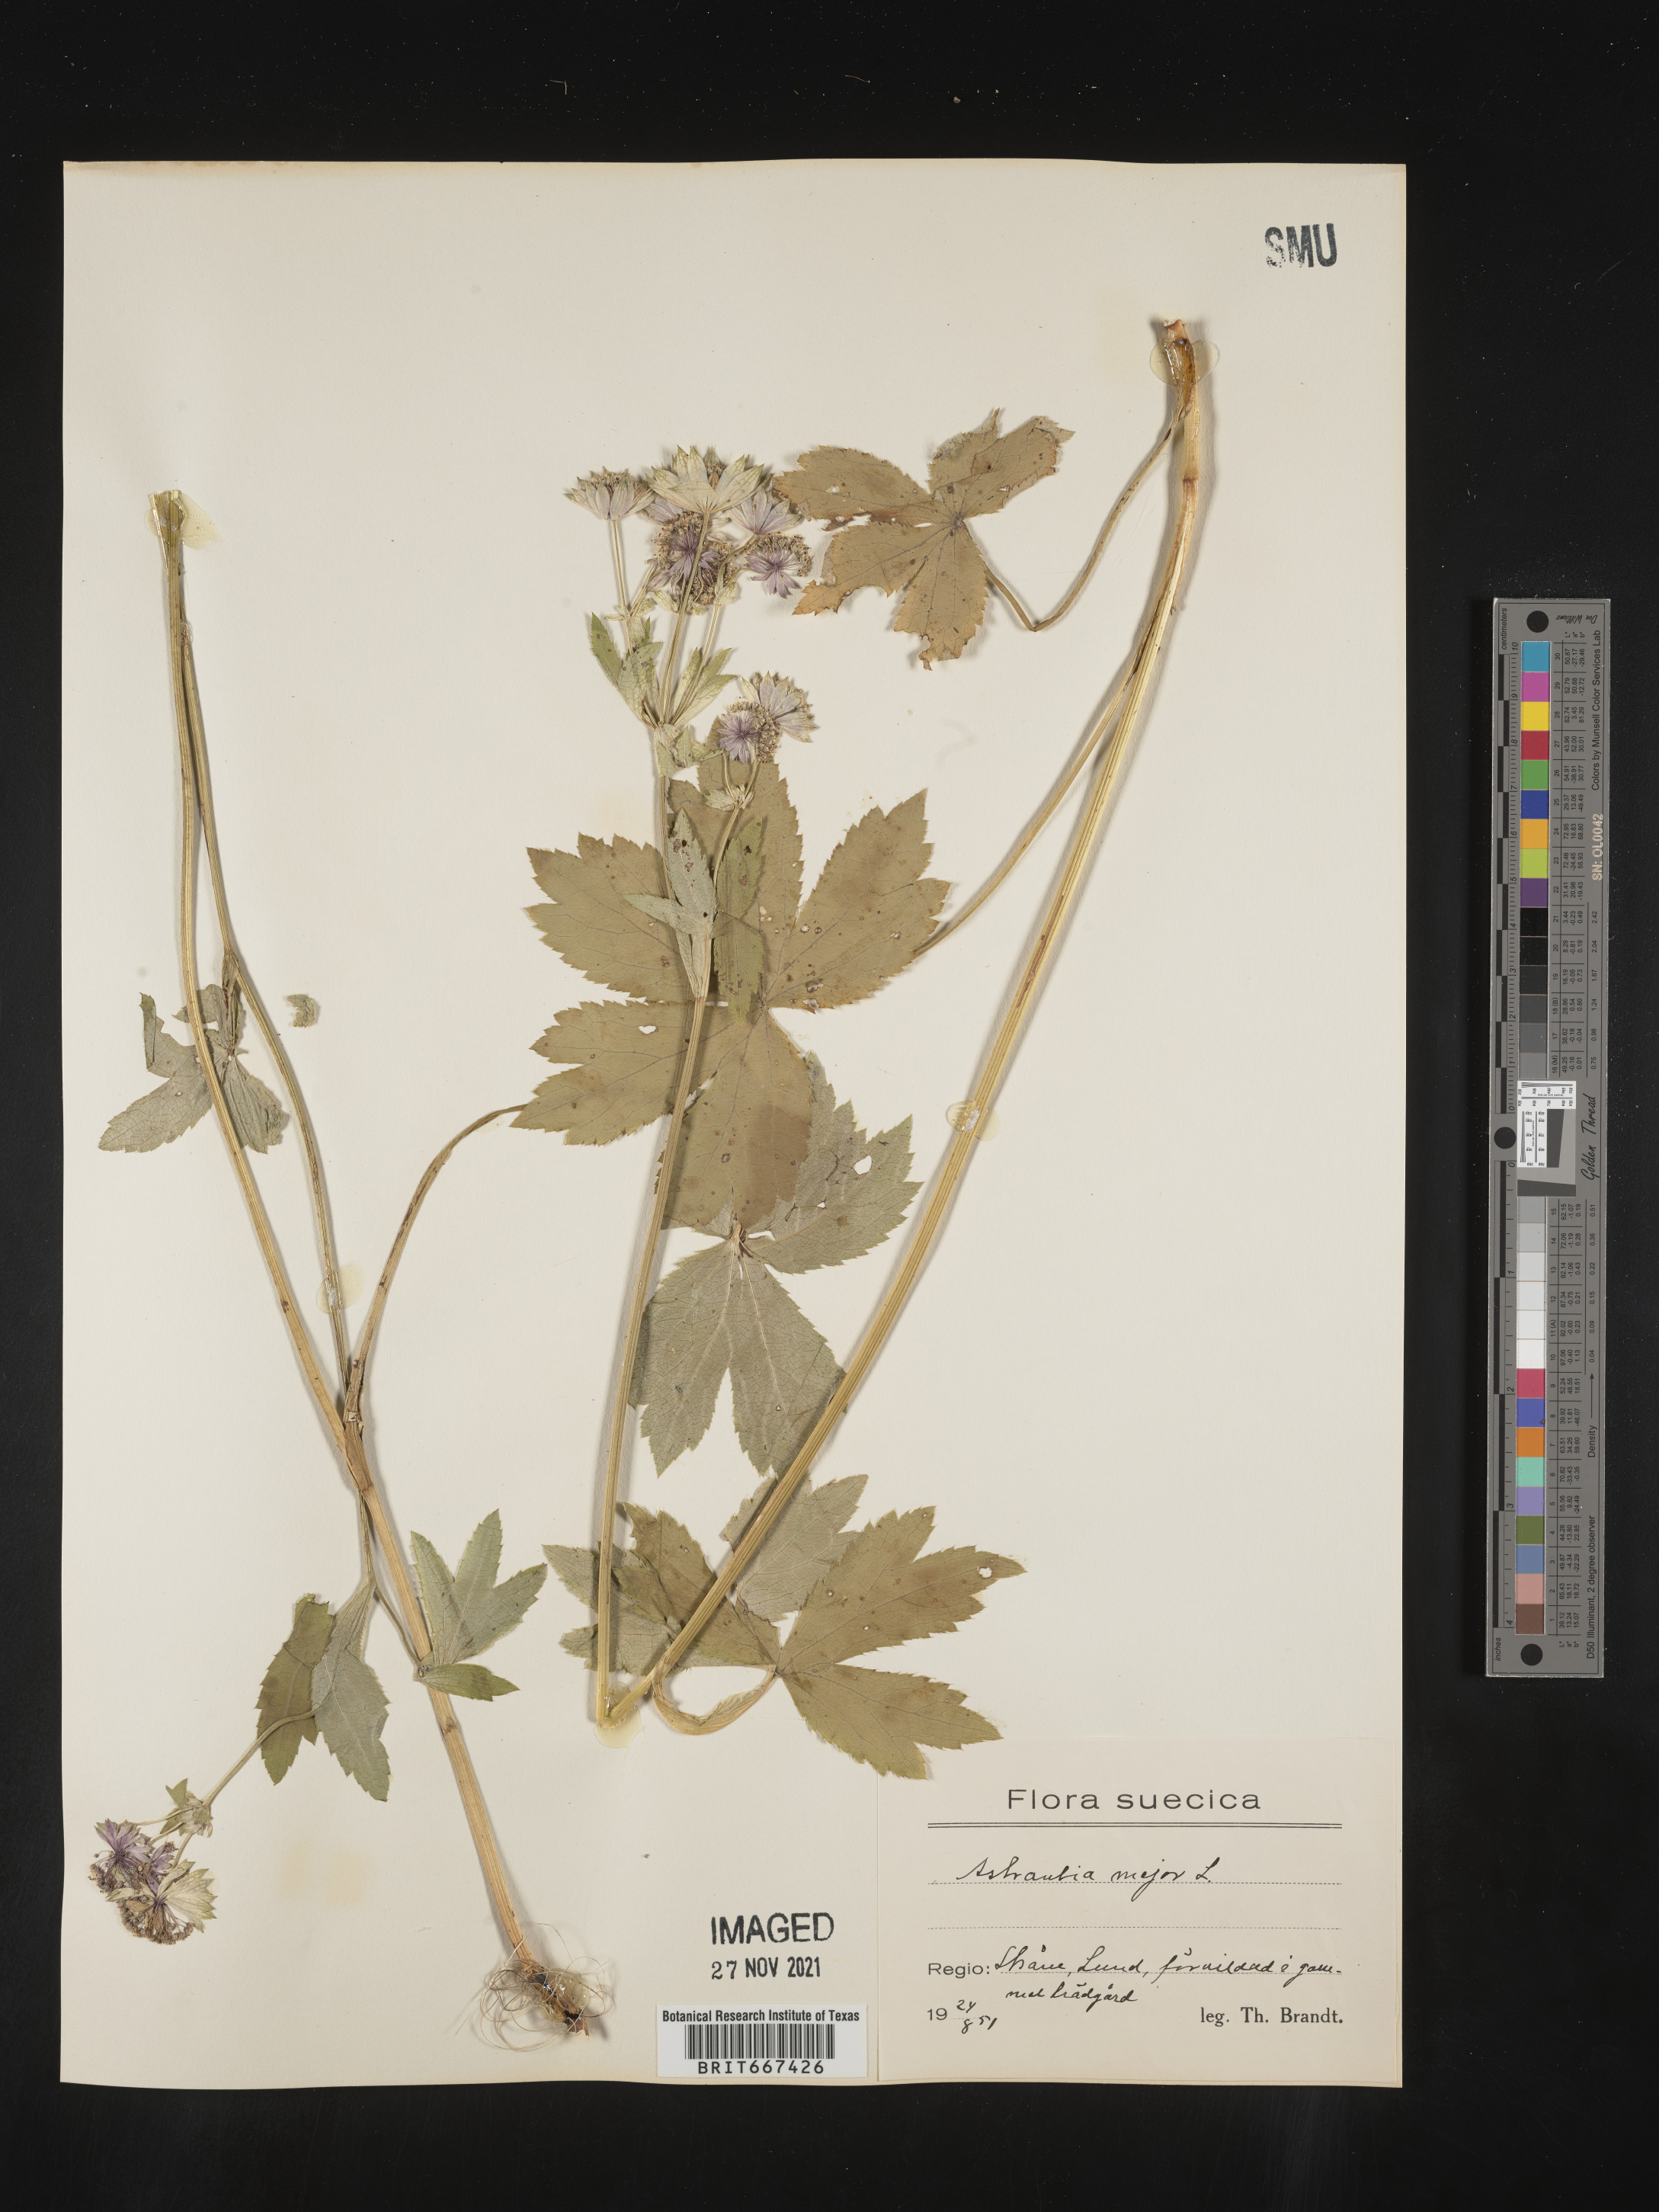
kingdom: Plantae
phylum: Tracheophyta
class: Magnoliopsida
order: Apiales
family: Apiaceae
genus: Astrantia
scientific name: Astrantia
